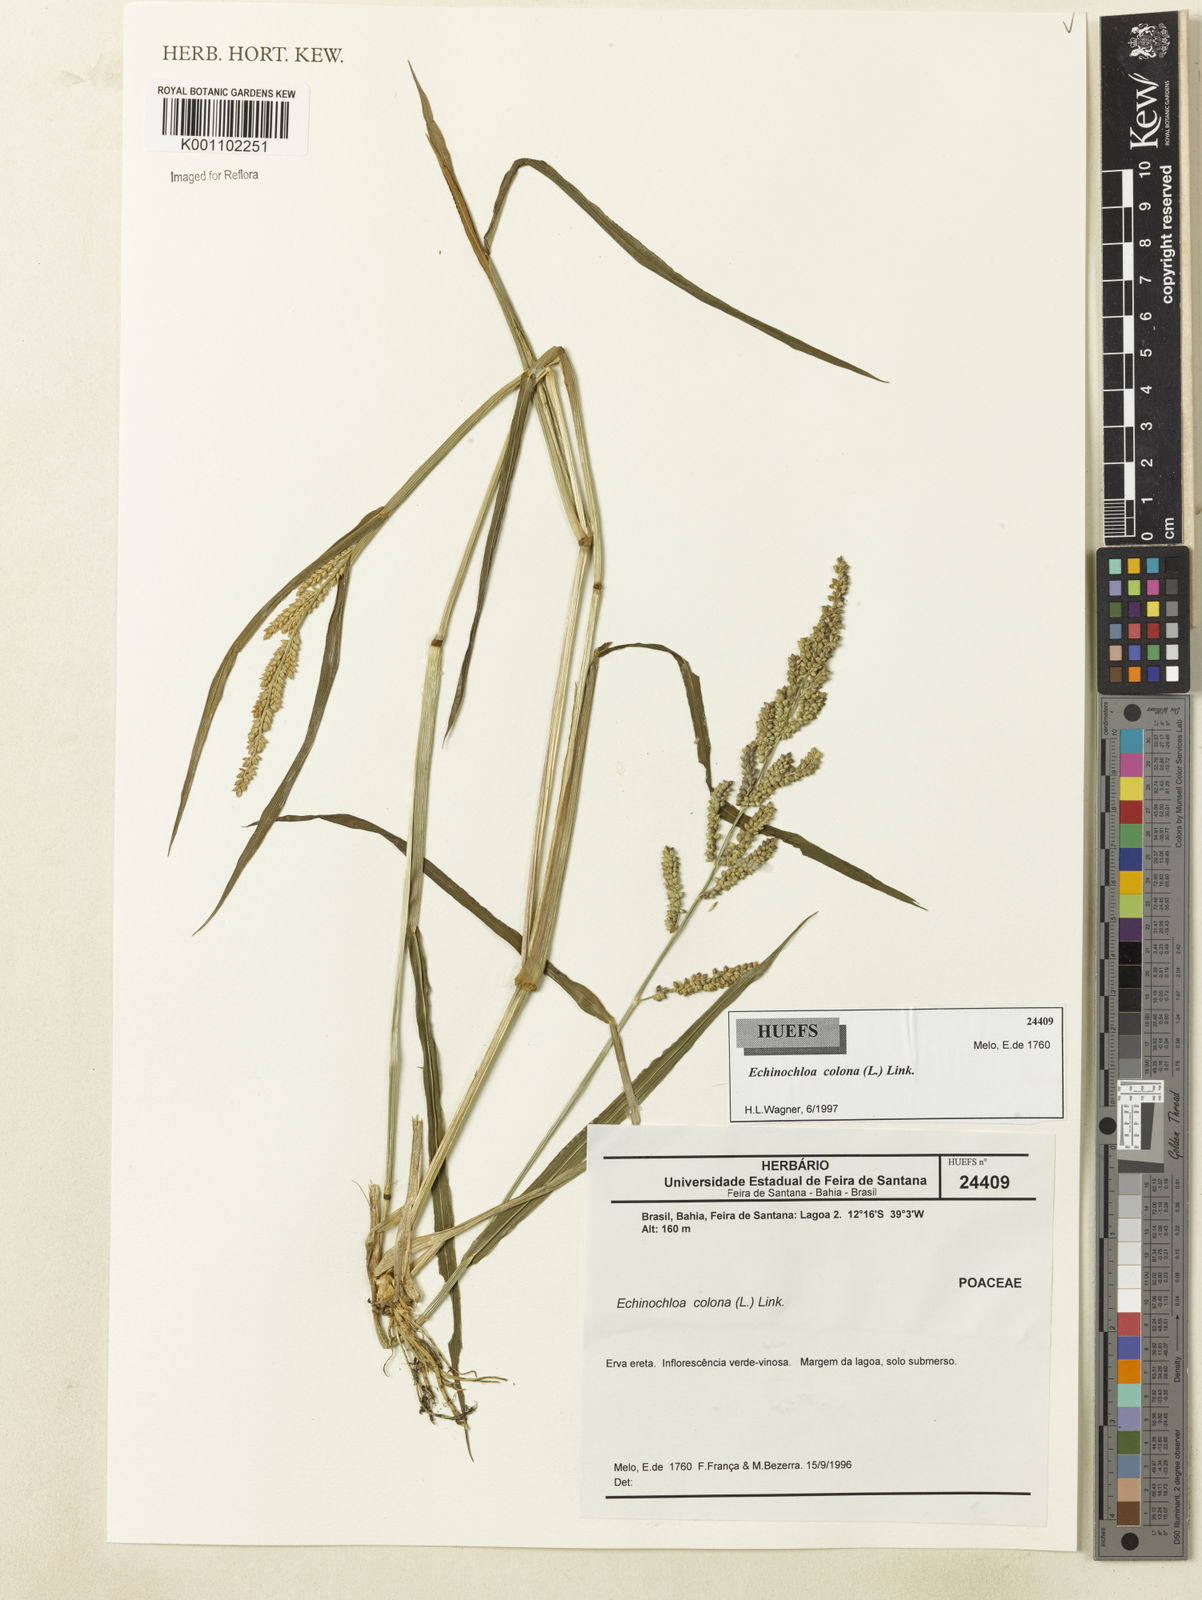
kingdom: Plantae
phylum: Tracheophyta
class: Liliopsida
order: Poales
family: Poaceae
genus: Echinochloa
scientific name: Echinochloa colonum
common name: Jungle rice
